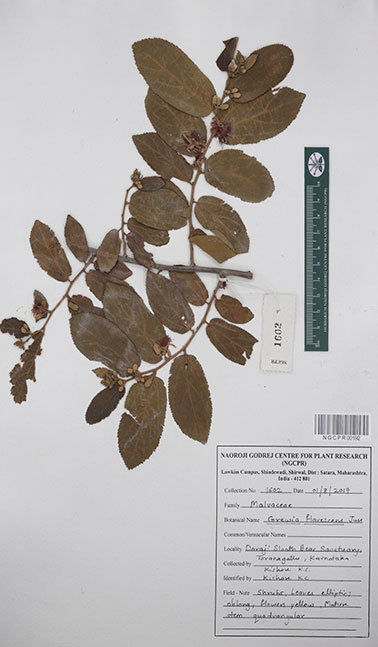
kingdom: Plantae
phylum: Tracheophyta
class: Magnoliopsida
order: Malvales
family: Malvaceae
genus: Grewia
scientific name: Grewia flavescens
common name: Sandpaper raisin
